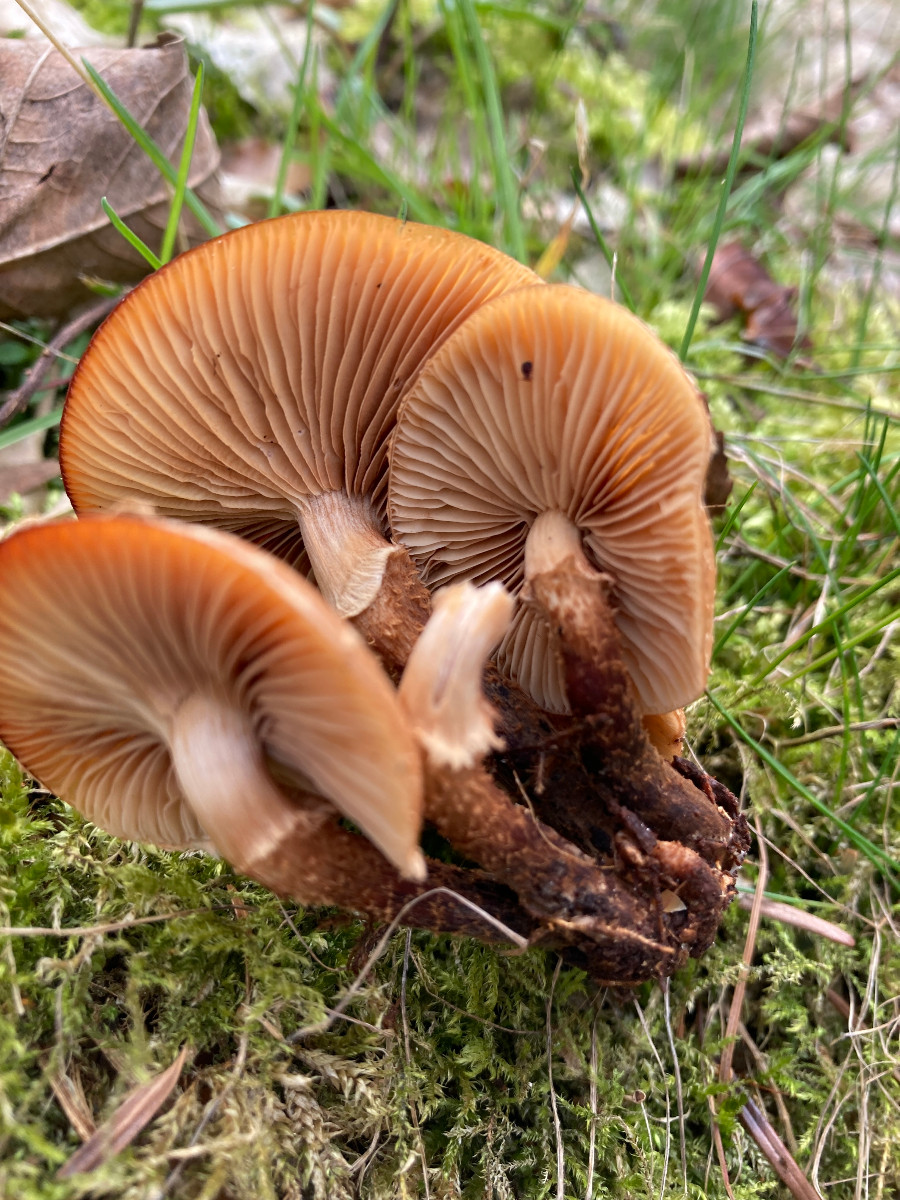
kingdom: Fungi
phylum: Basidiomycota
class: Agaricomycetes
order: Agaricales
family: Strophariaceae
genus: Kuehneromyces
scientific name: Kuehneromyces mutabilis
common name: foranderlig skælhat
